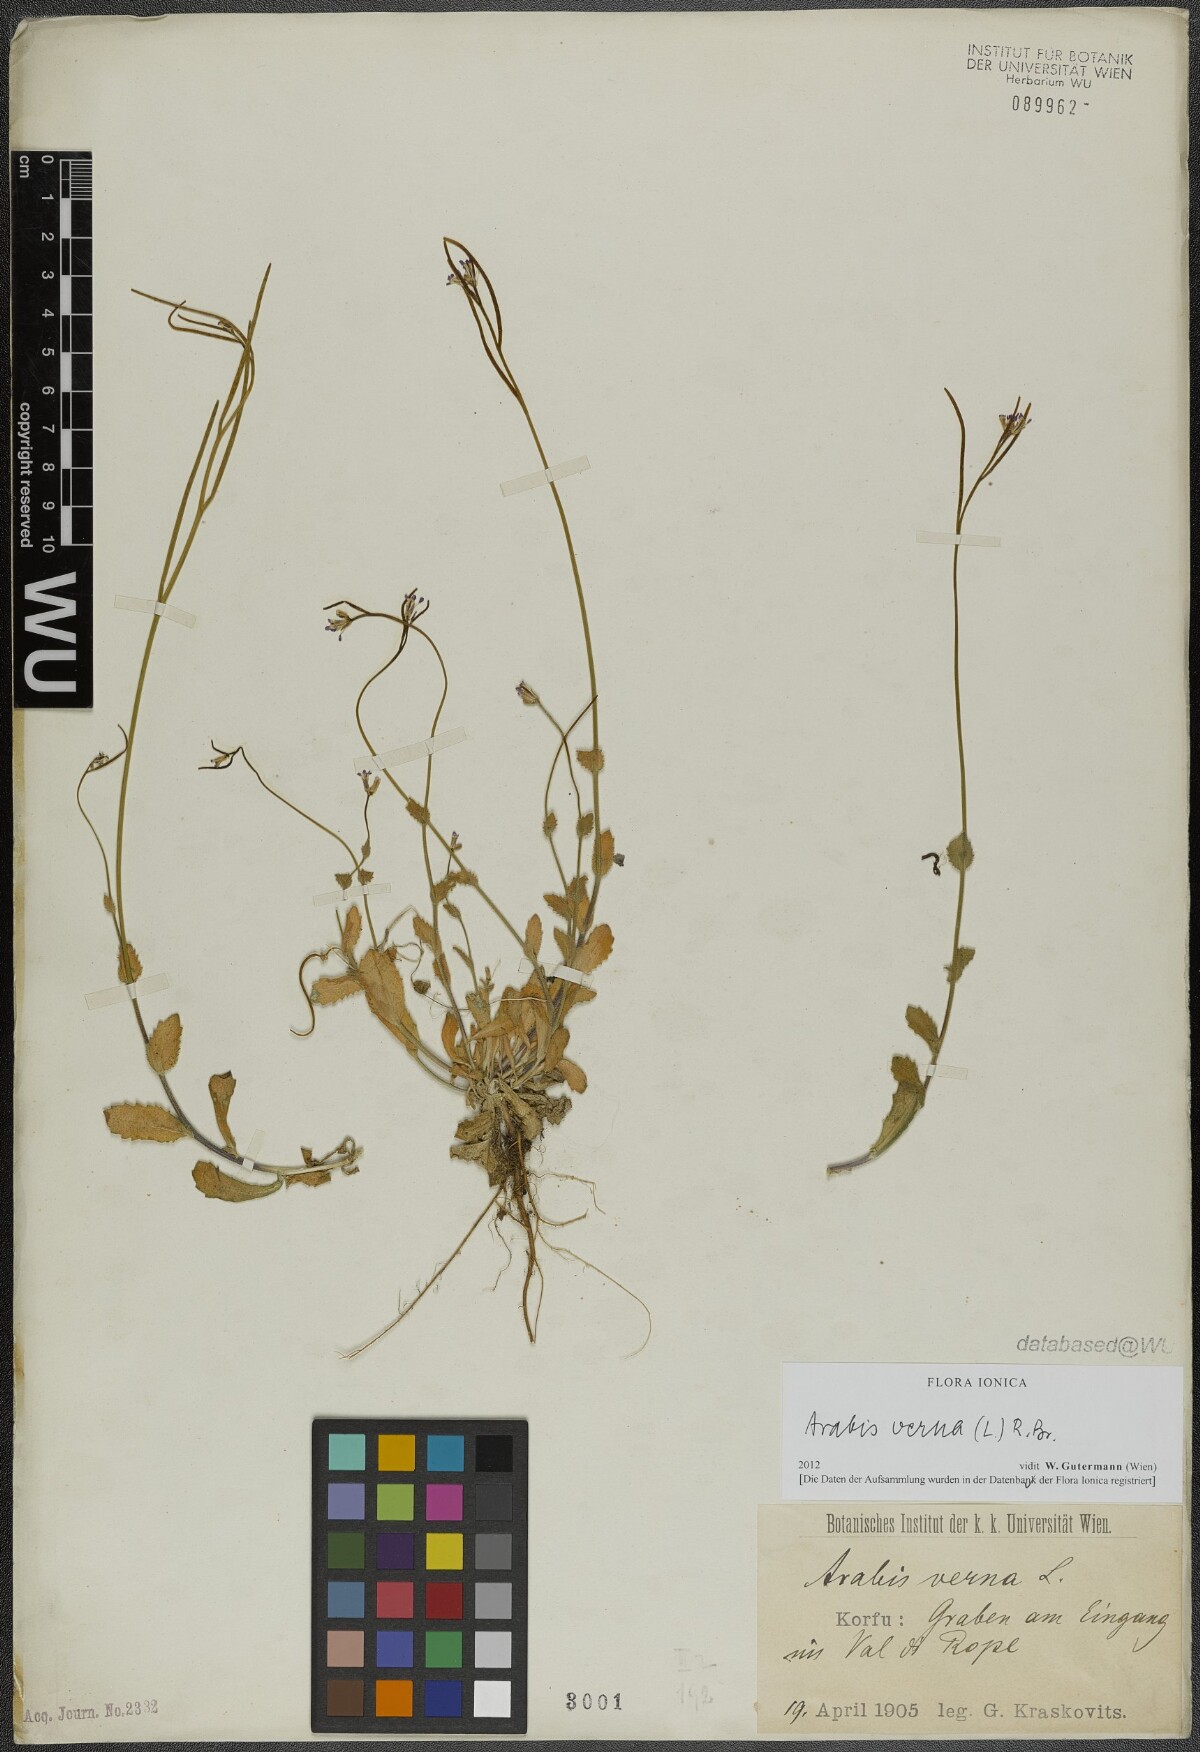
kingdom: Plantae
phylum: Tracheophyta
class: Magnoliopsida
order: Brassicales
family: Brassicaceae
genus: Arabis
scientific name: Arabis verna
